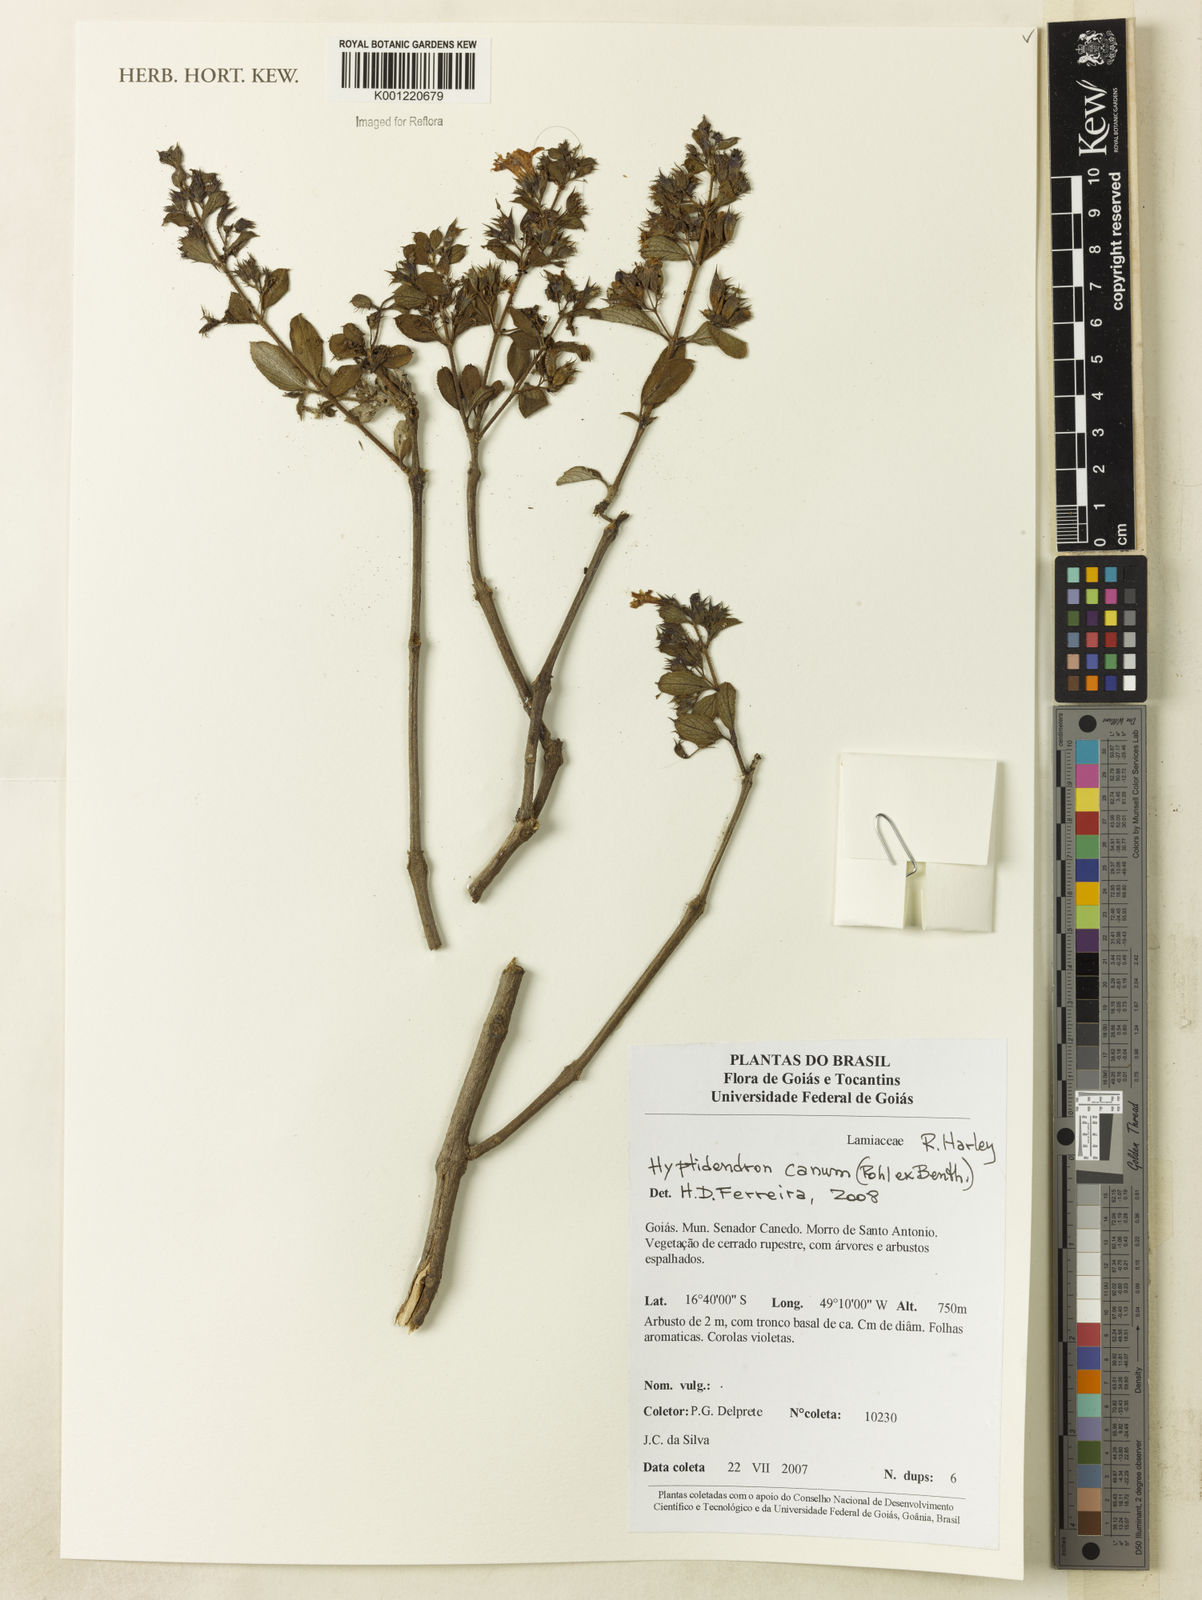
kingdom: Plantae
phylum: Tracheophyta
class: Magnoliopsida
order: Lamiales
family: Lamiaceae
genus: Hyptidendron
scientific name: Hyptidendron canum
